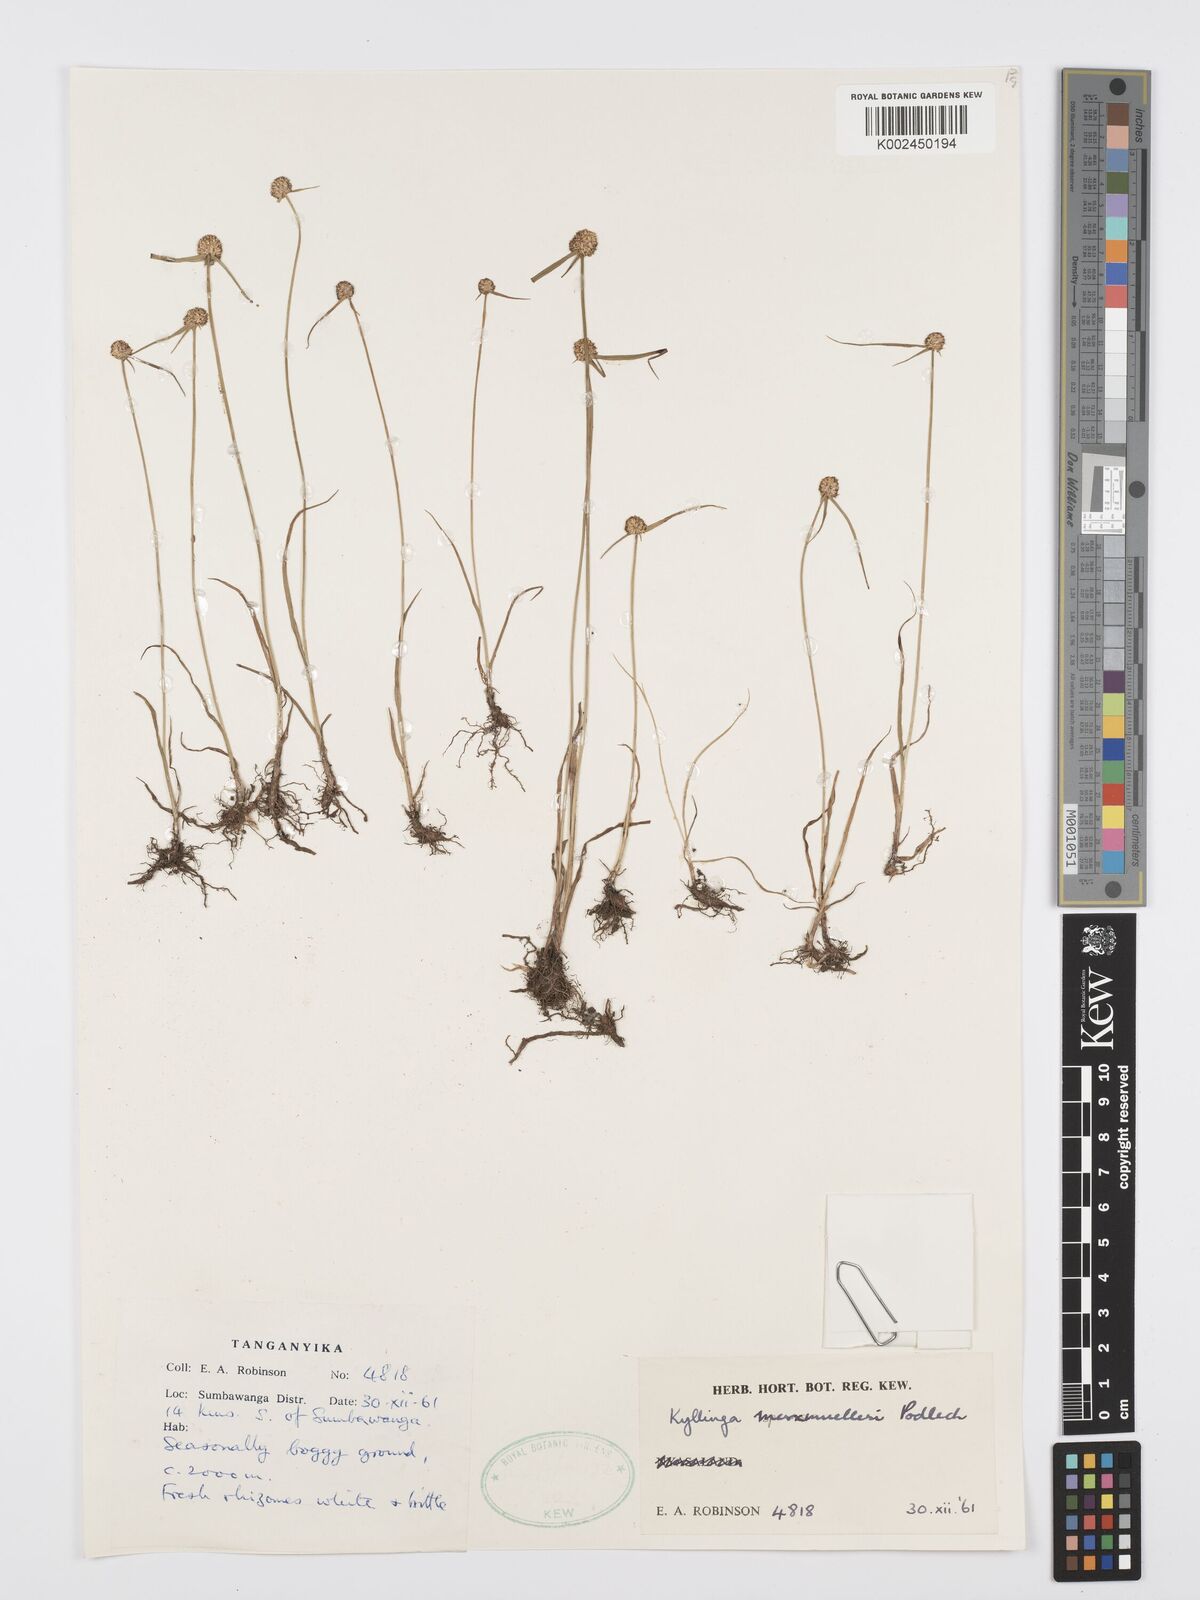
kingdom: Plantae
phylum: Tracheophyta
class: Liliopsida
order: Poales
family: Cyperaceae
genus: Cyperus
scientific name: Cyperus albiceps
